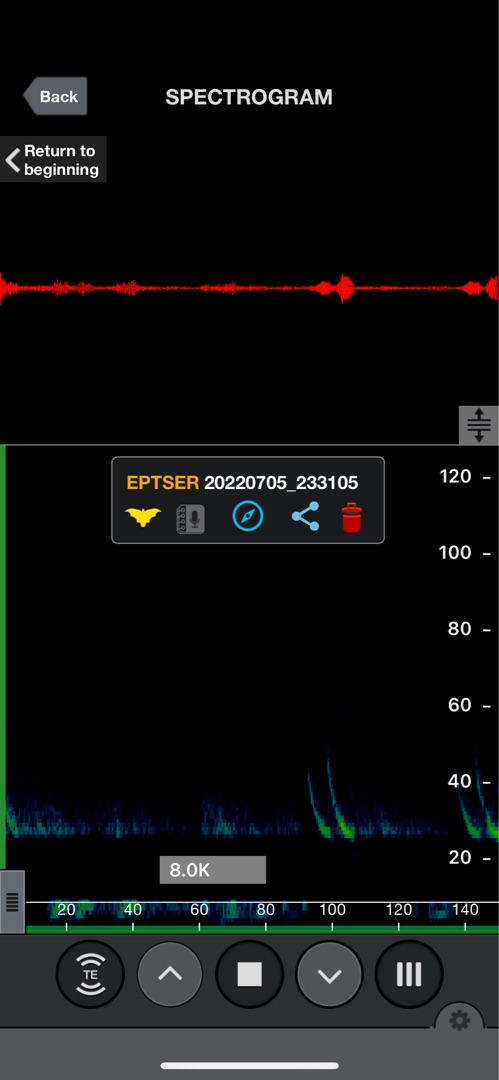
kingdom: Animalia
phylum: Chordata
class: Mammalia
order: Chiroptera
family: Vespertilionidae
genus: Eptesicus
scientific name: Eptesicus serotinus
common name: Sydflagermus
